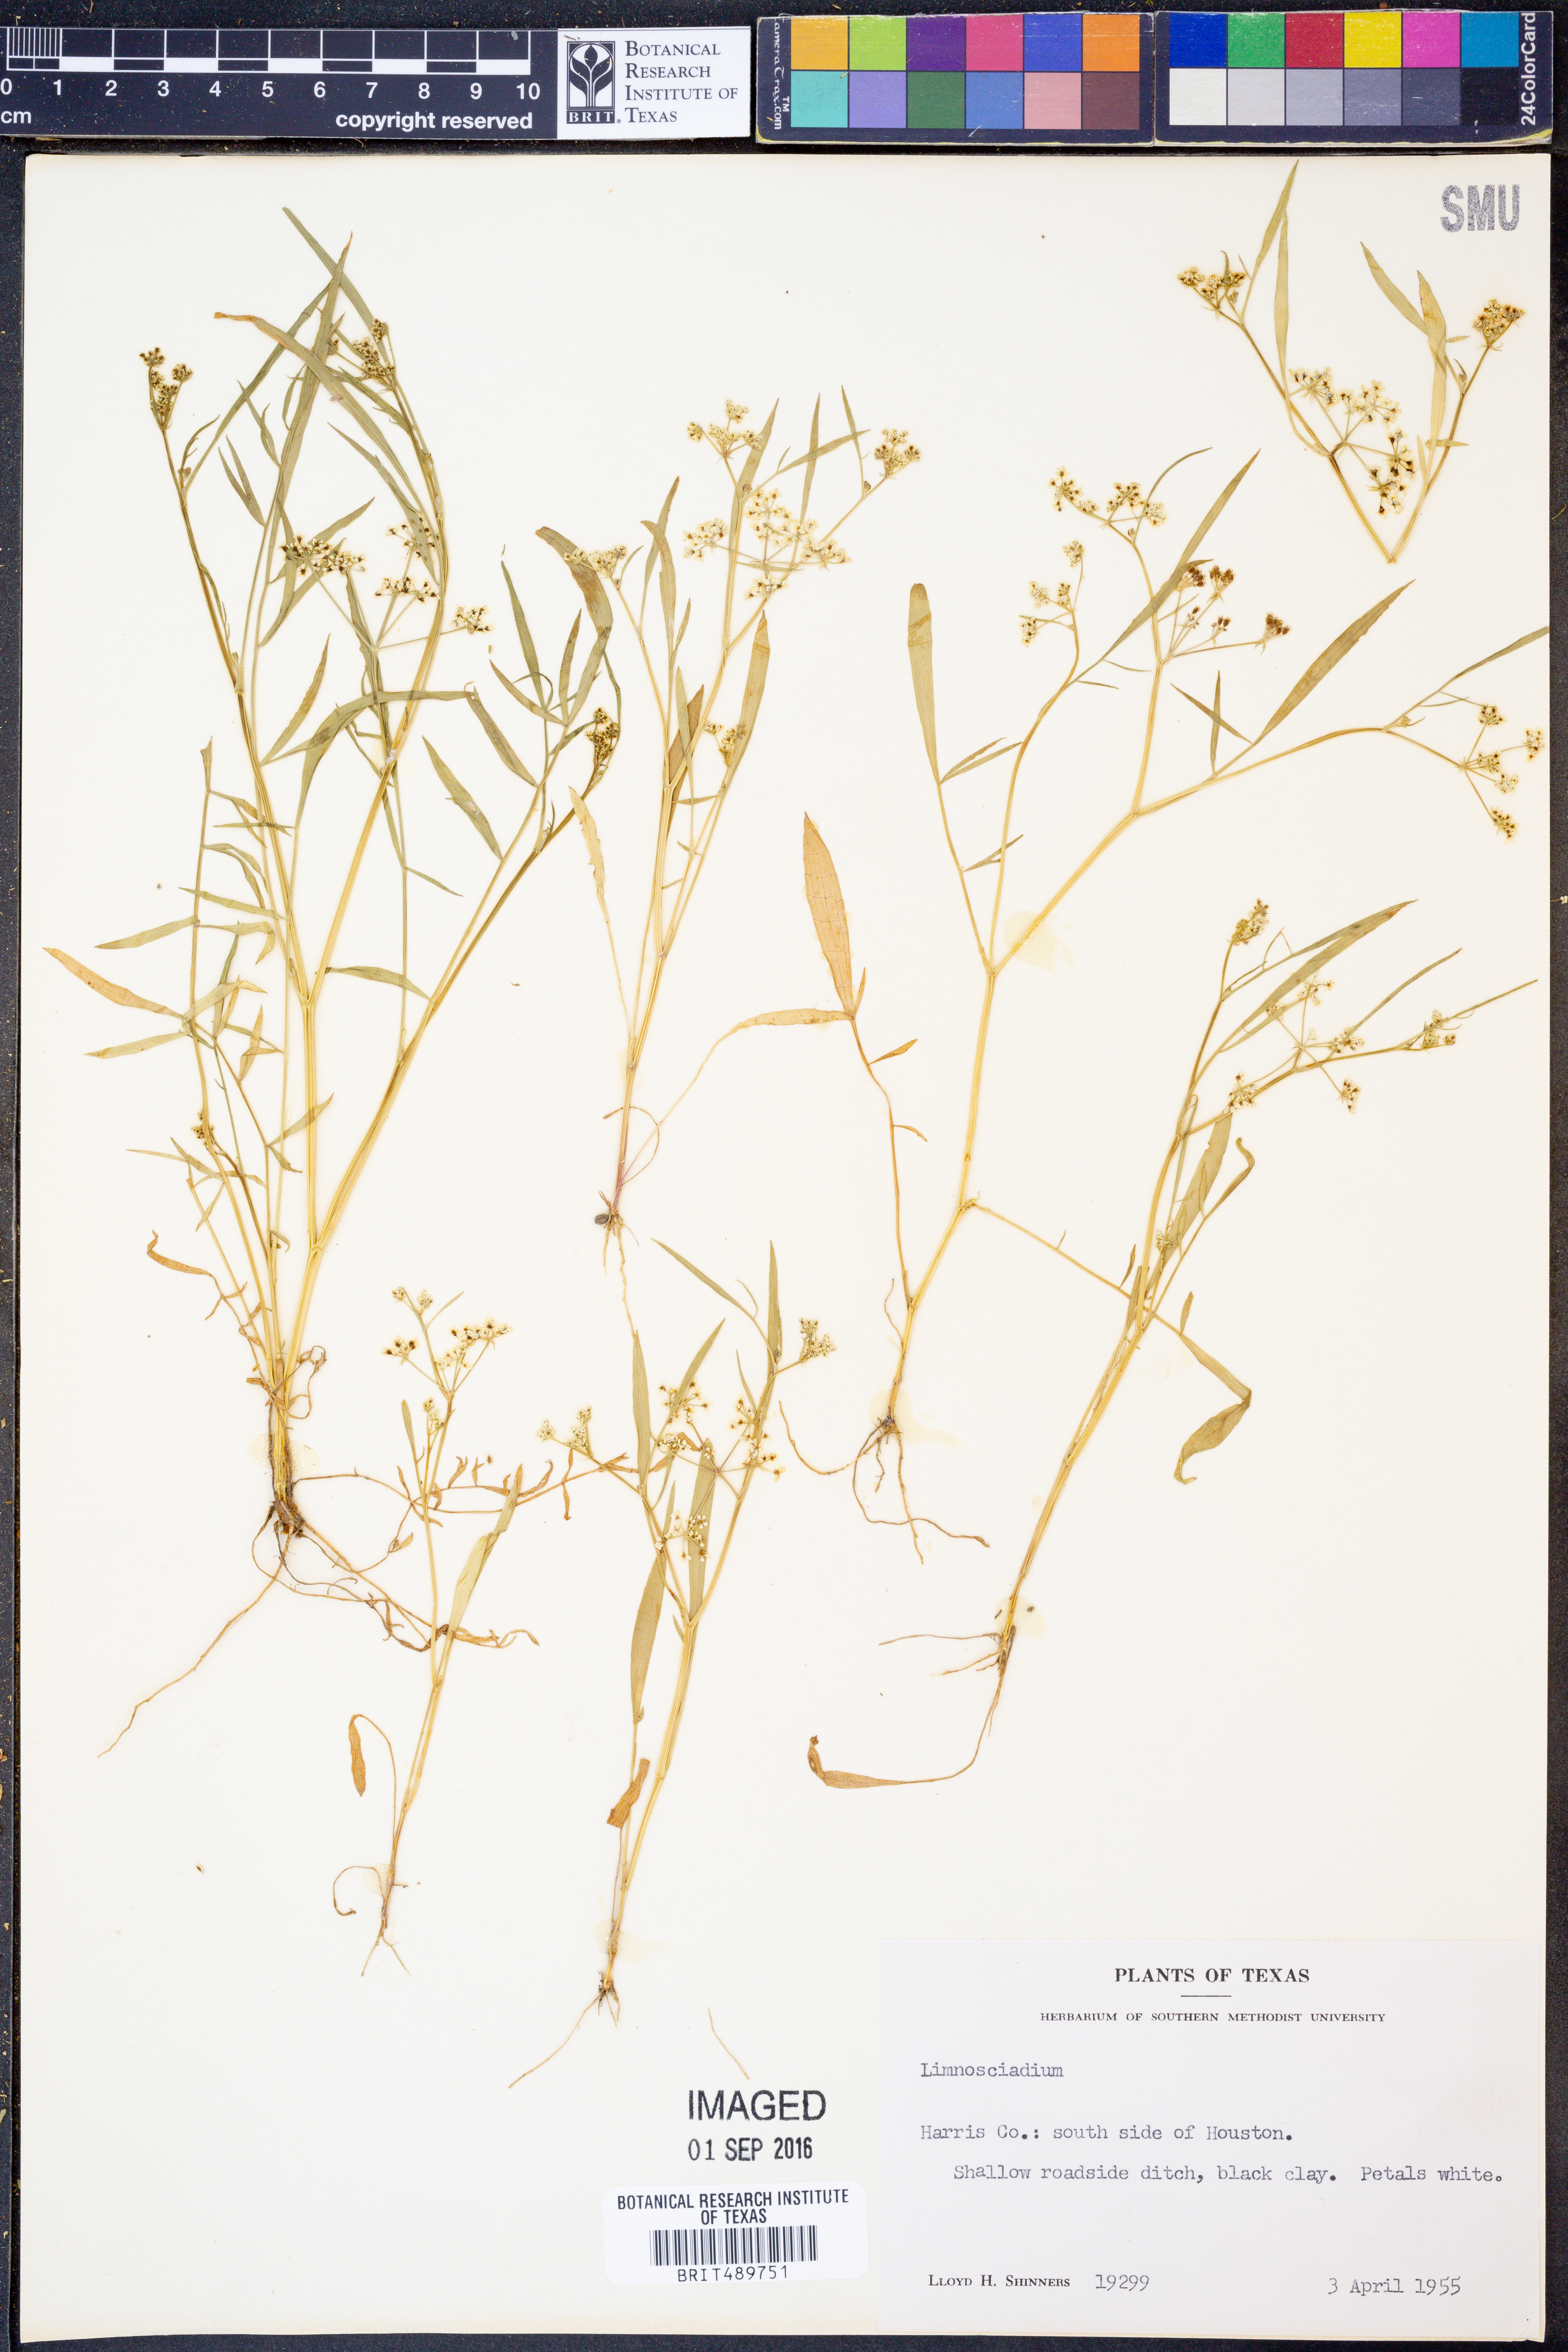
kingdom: Plantae
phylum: Tracheophyta
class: Magnoliopsida
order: Apiales
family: Apiaceae
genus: Limnosciadium
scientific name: Limnosciadium
